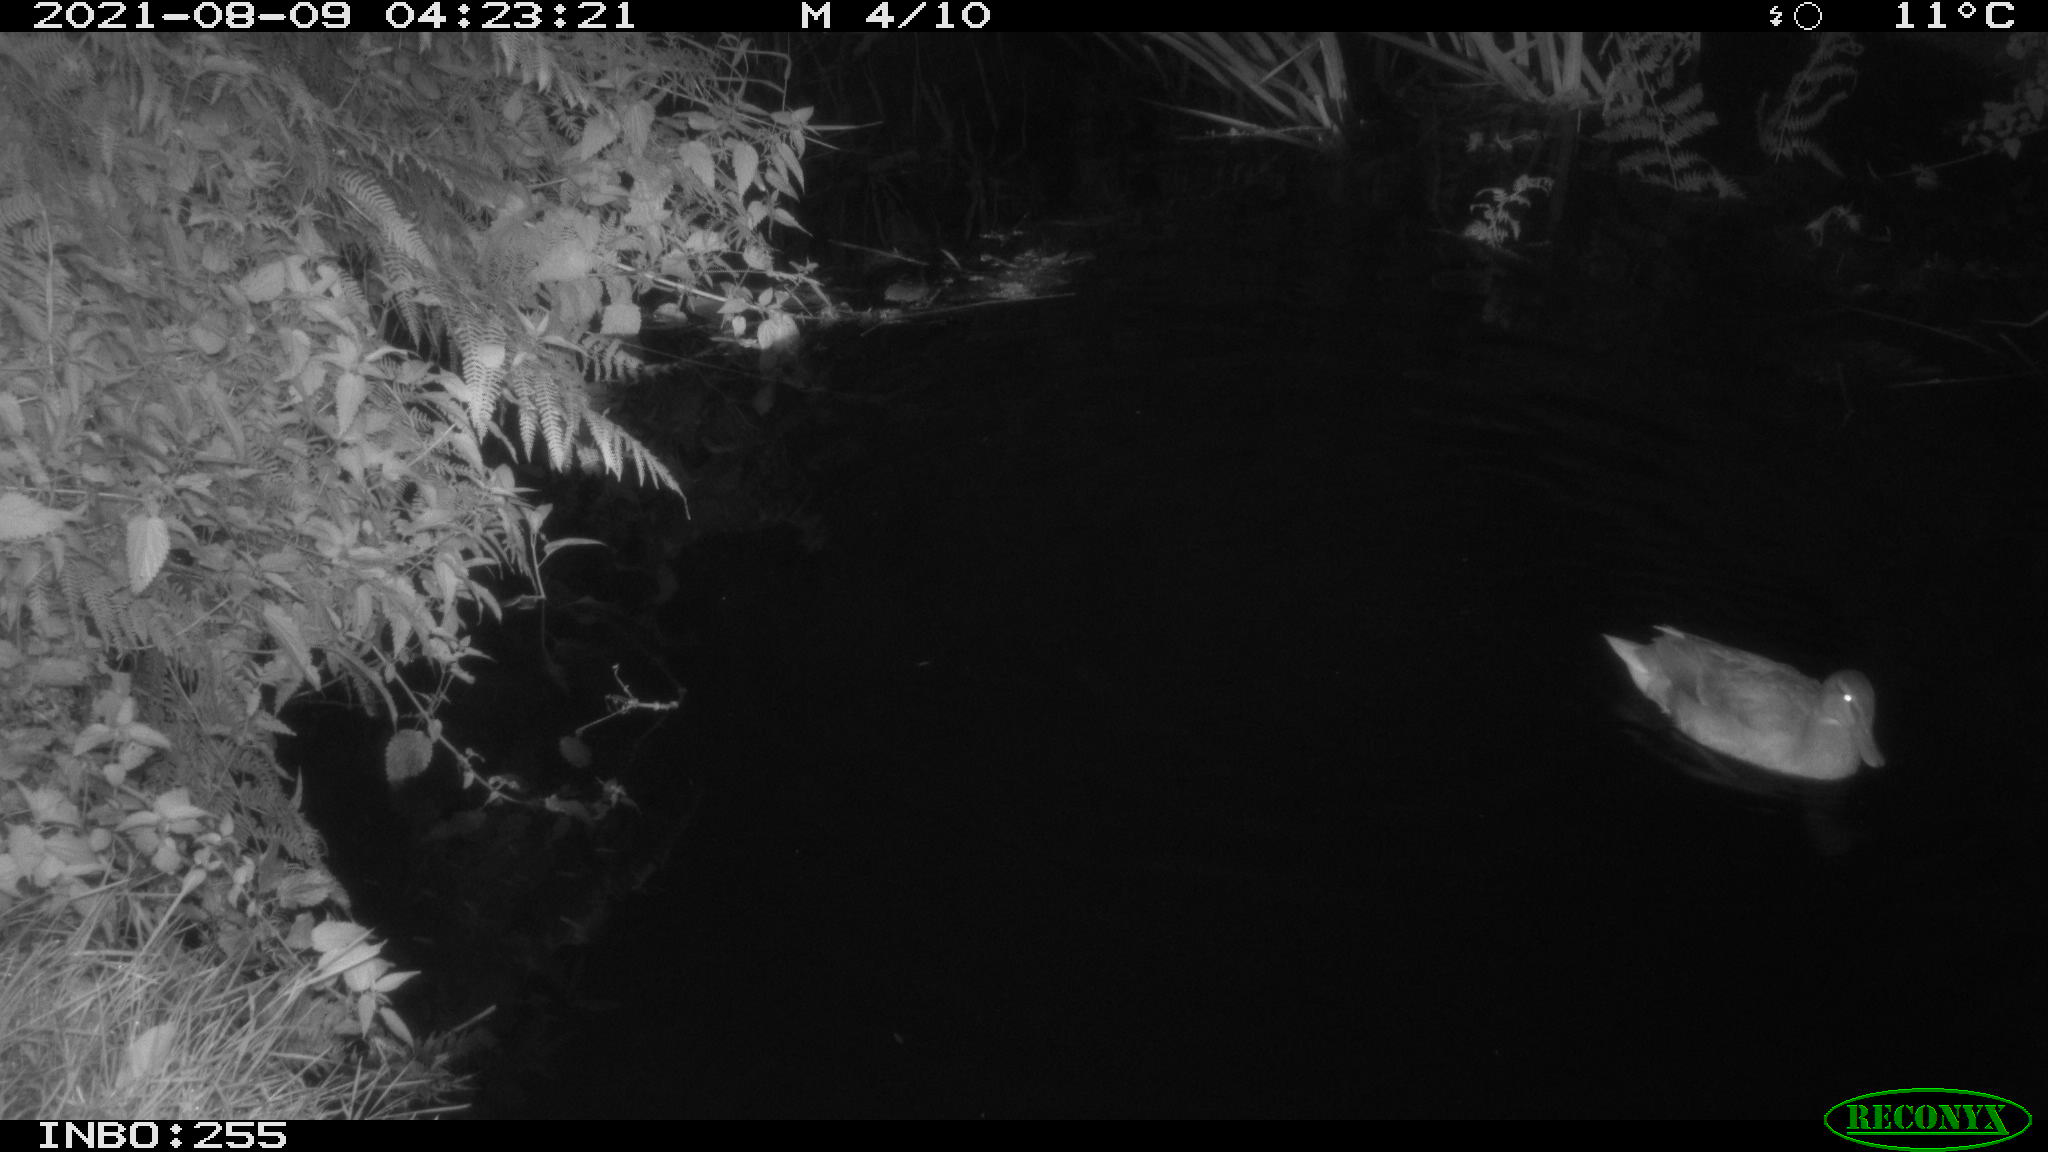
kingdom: Animalia
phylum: Chordata
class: Aves
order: Gruiformes
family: Rallidae
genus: Gallinula
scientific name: Gallinula chloropus
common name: Common moorhen
